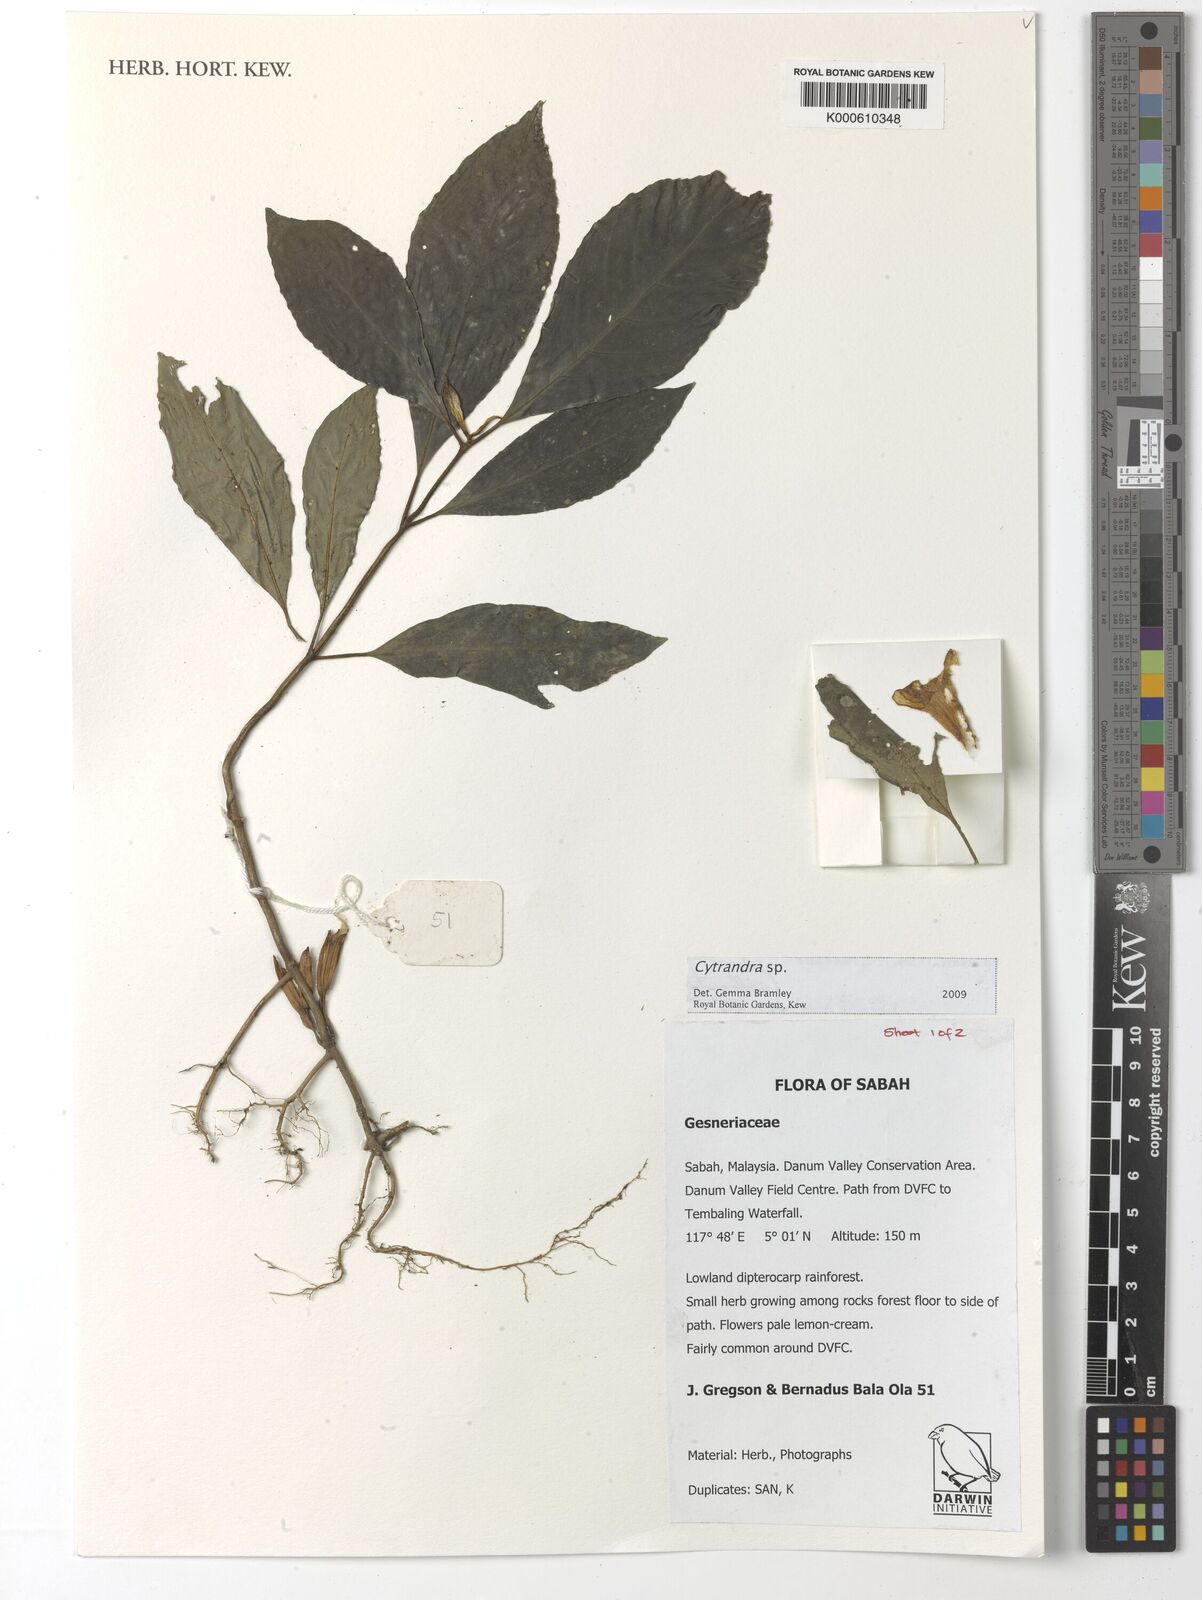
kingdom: Plantae
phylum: Tracheophyta
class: Magnoliopsida
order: Lamiales
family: Gesneriaceae
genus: Cyrtandra
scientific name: Cyrtandra
